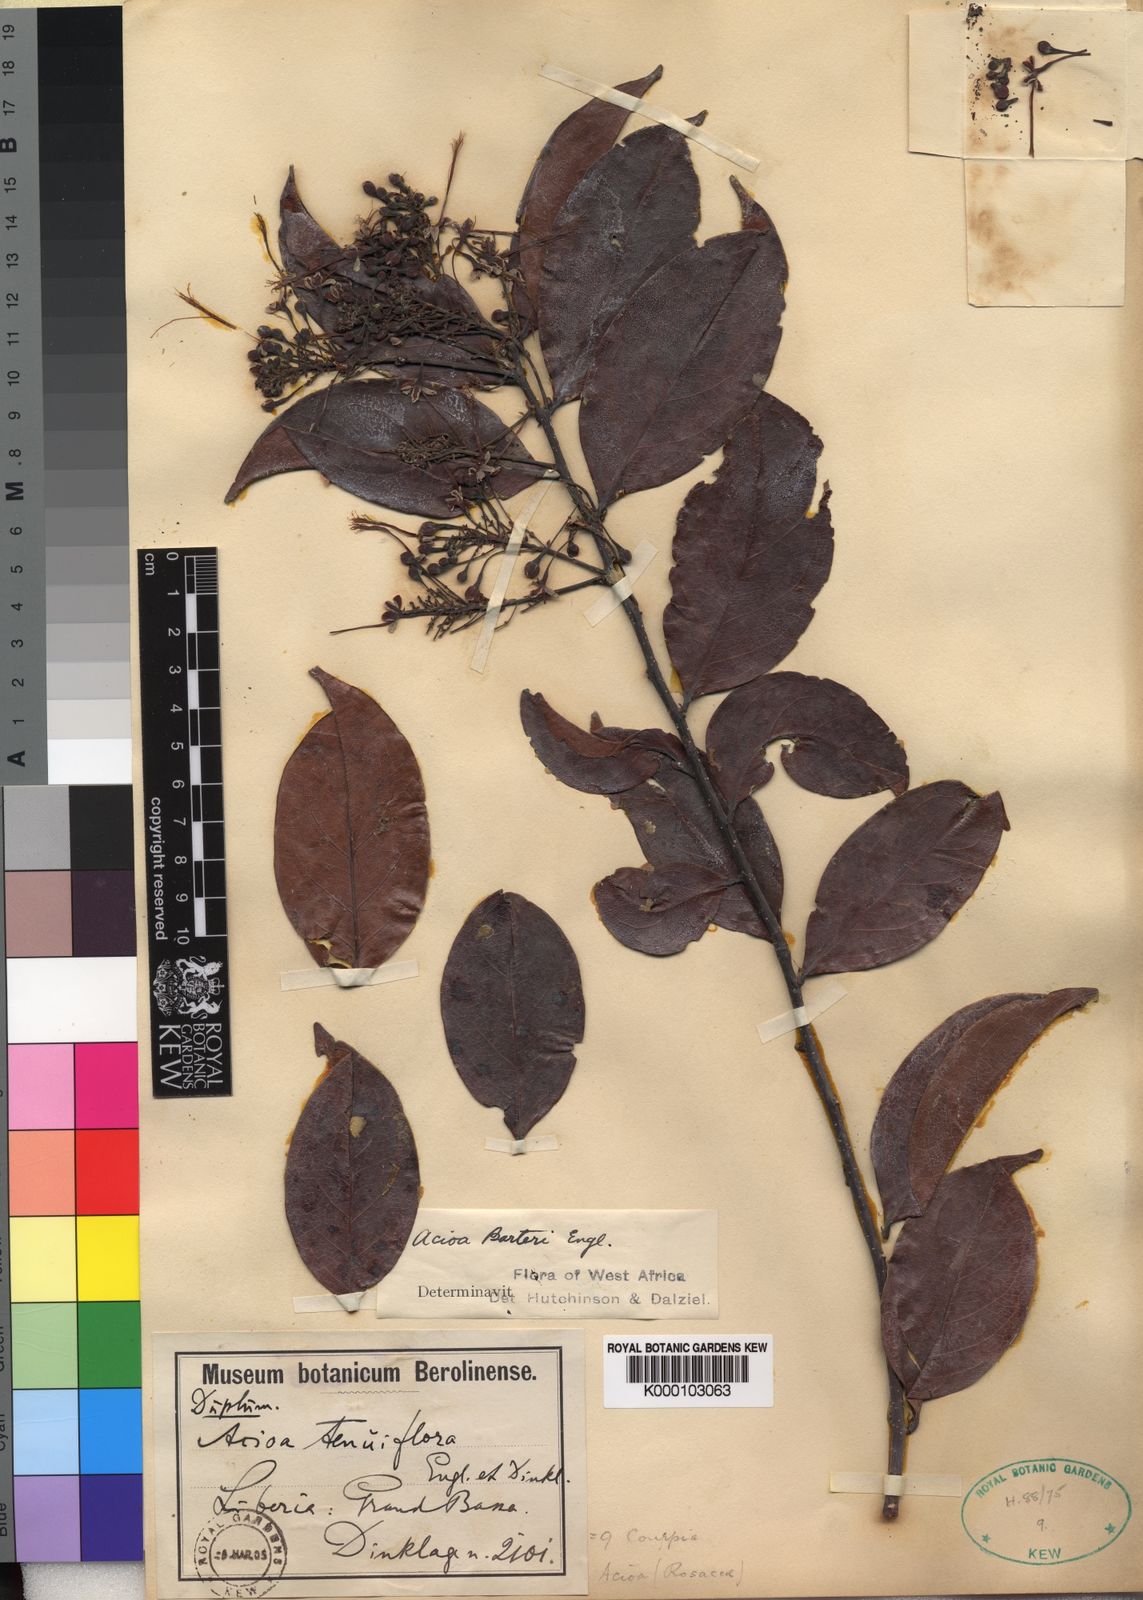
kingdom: Plantae
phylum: Tracheophyta
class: Magnoliopsida
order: Malpighiales
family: Chrysobalanaceae
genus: Dactyladenia
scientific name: Dactyladenia barteri
